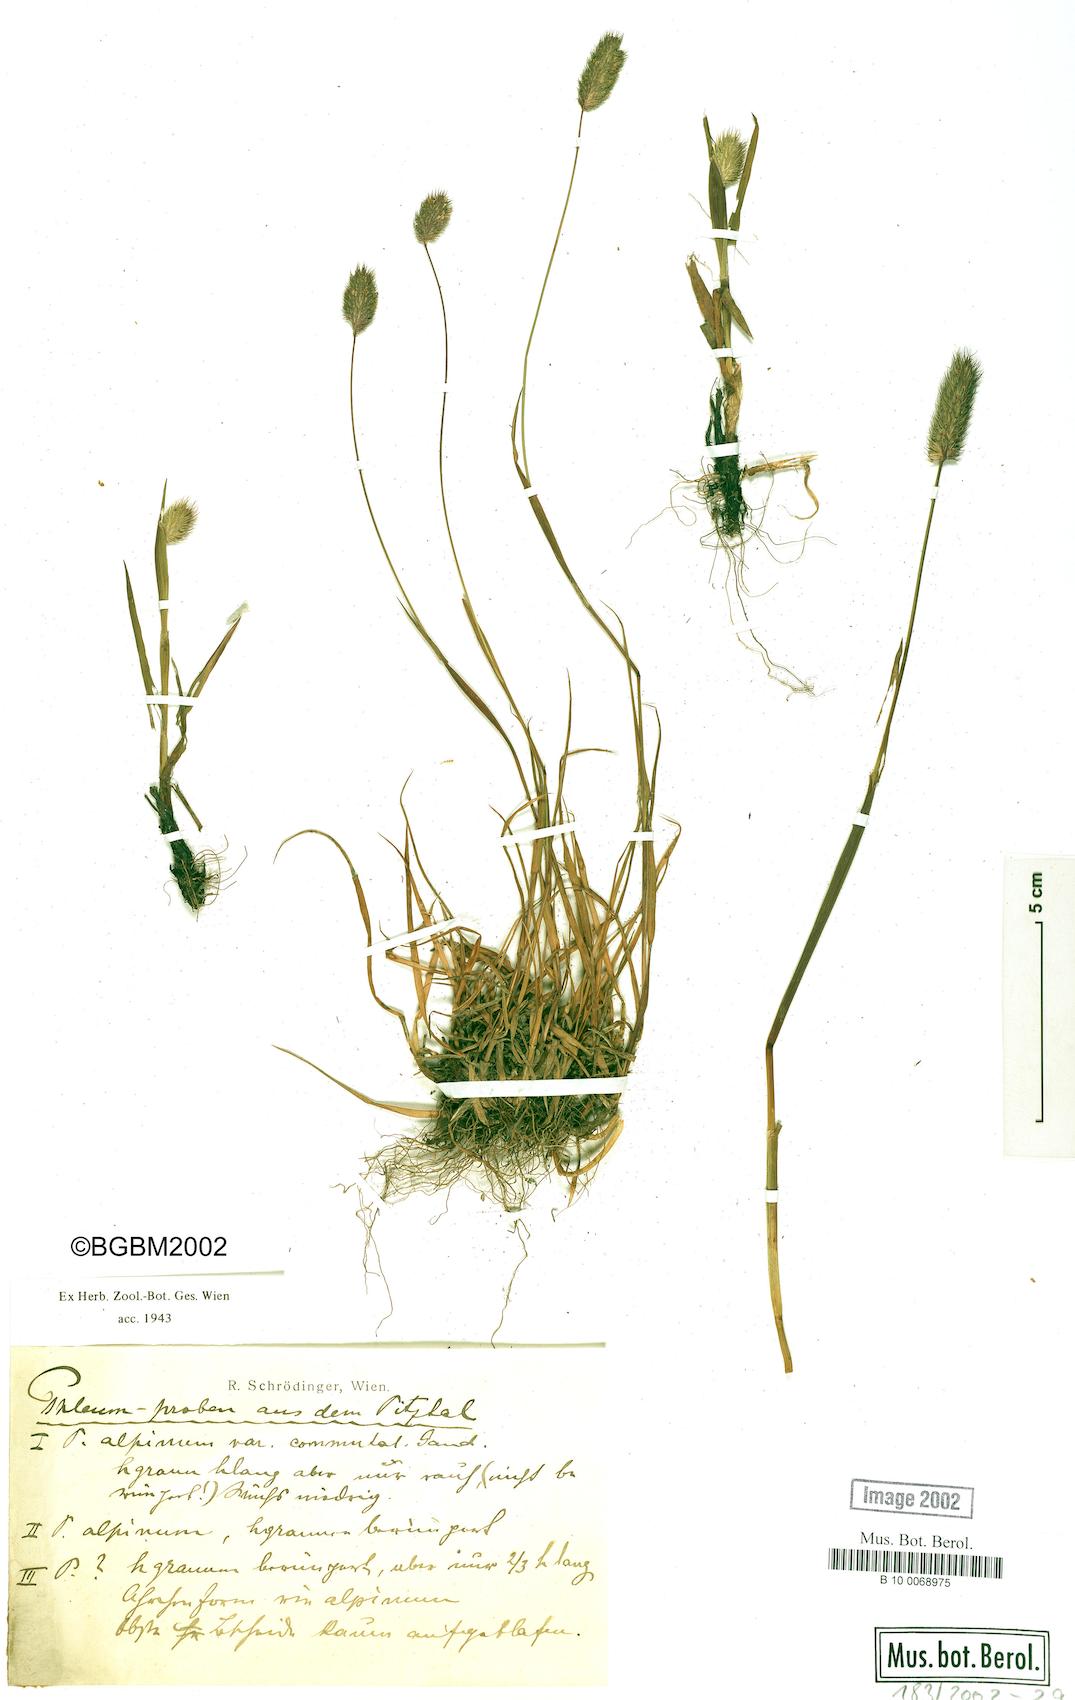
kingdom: Plantae
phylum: Tracheophyta
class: Liliopsida
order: Poales
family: Poaceae
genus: Phleum
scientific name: Phleum alpinum
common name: Alpine cat's-tail
